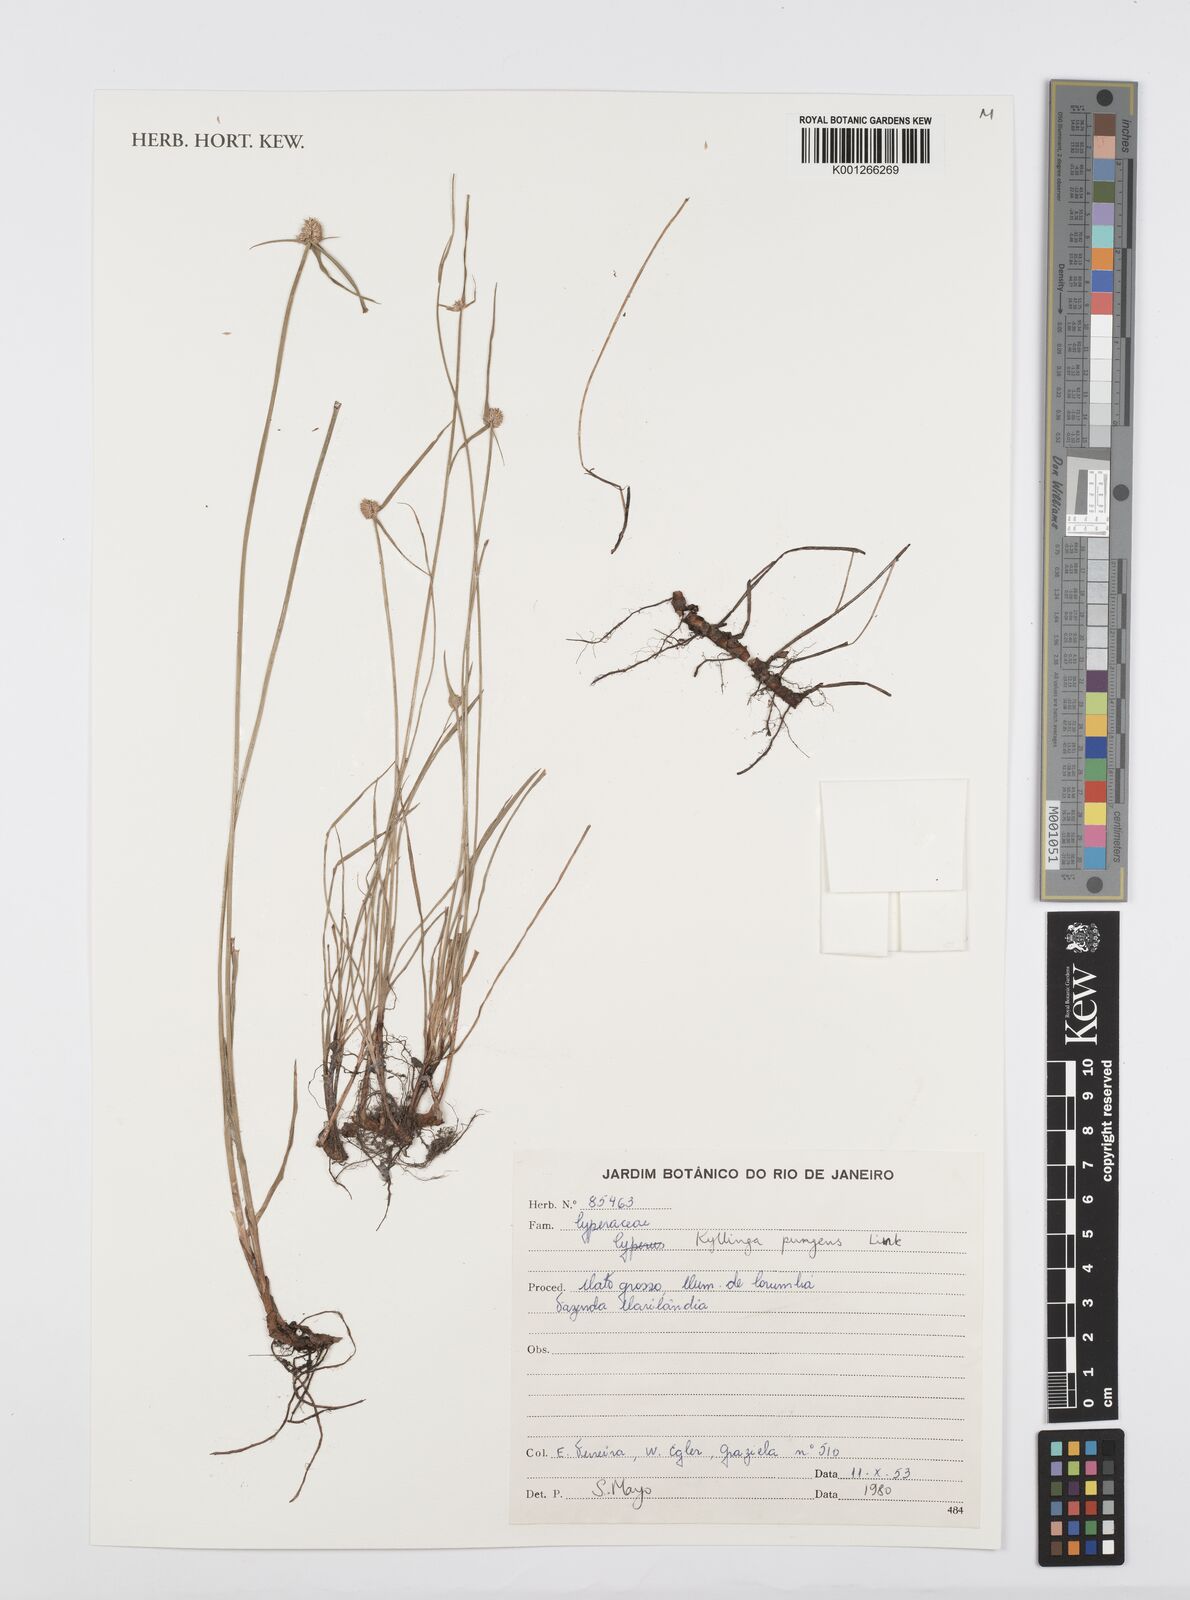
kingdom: Plantae
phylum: Tracheophyta
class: Liliopsida
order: Poales
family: Cyperaceae
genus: Cyperus
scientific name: Cyperus obtusatus
